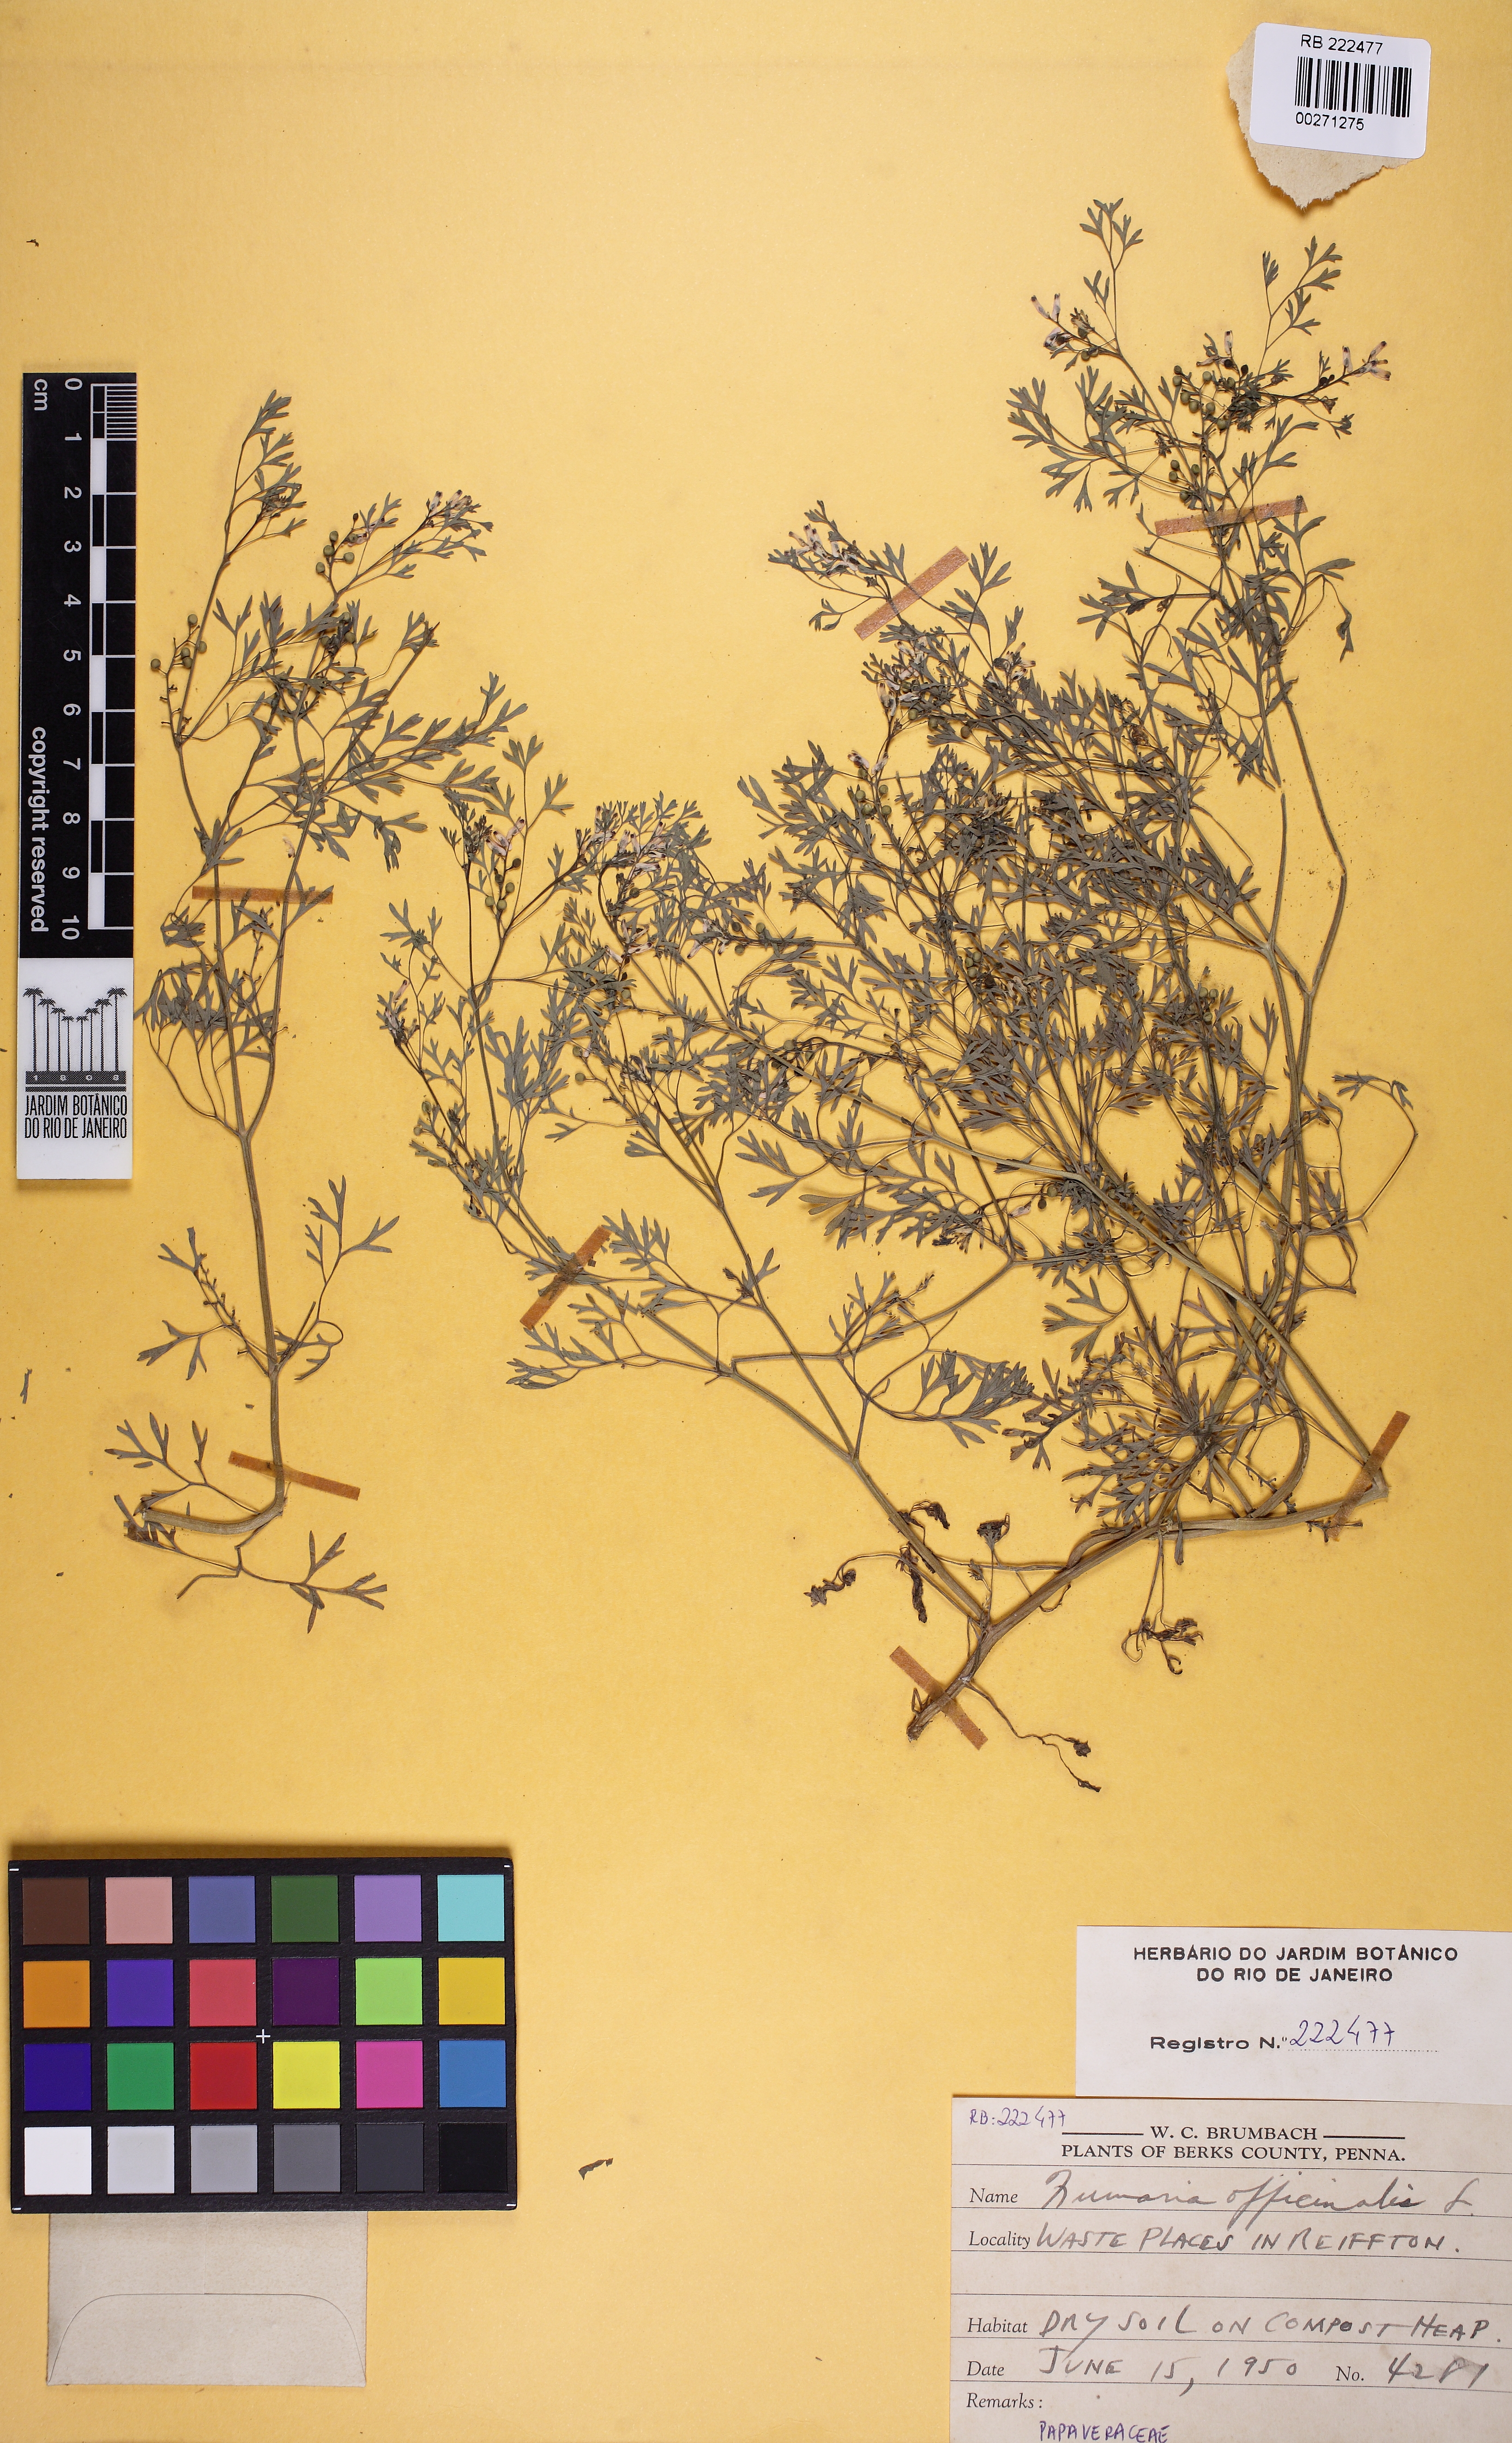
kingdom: Plantae
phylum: Tracheophyta
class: Magnoliopsida
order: Ranunculales
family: Papaveraceae
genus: Fumaria
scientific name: Fumaria officinalis
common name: Common fumitory
